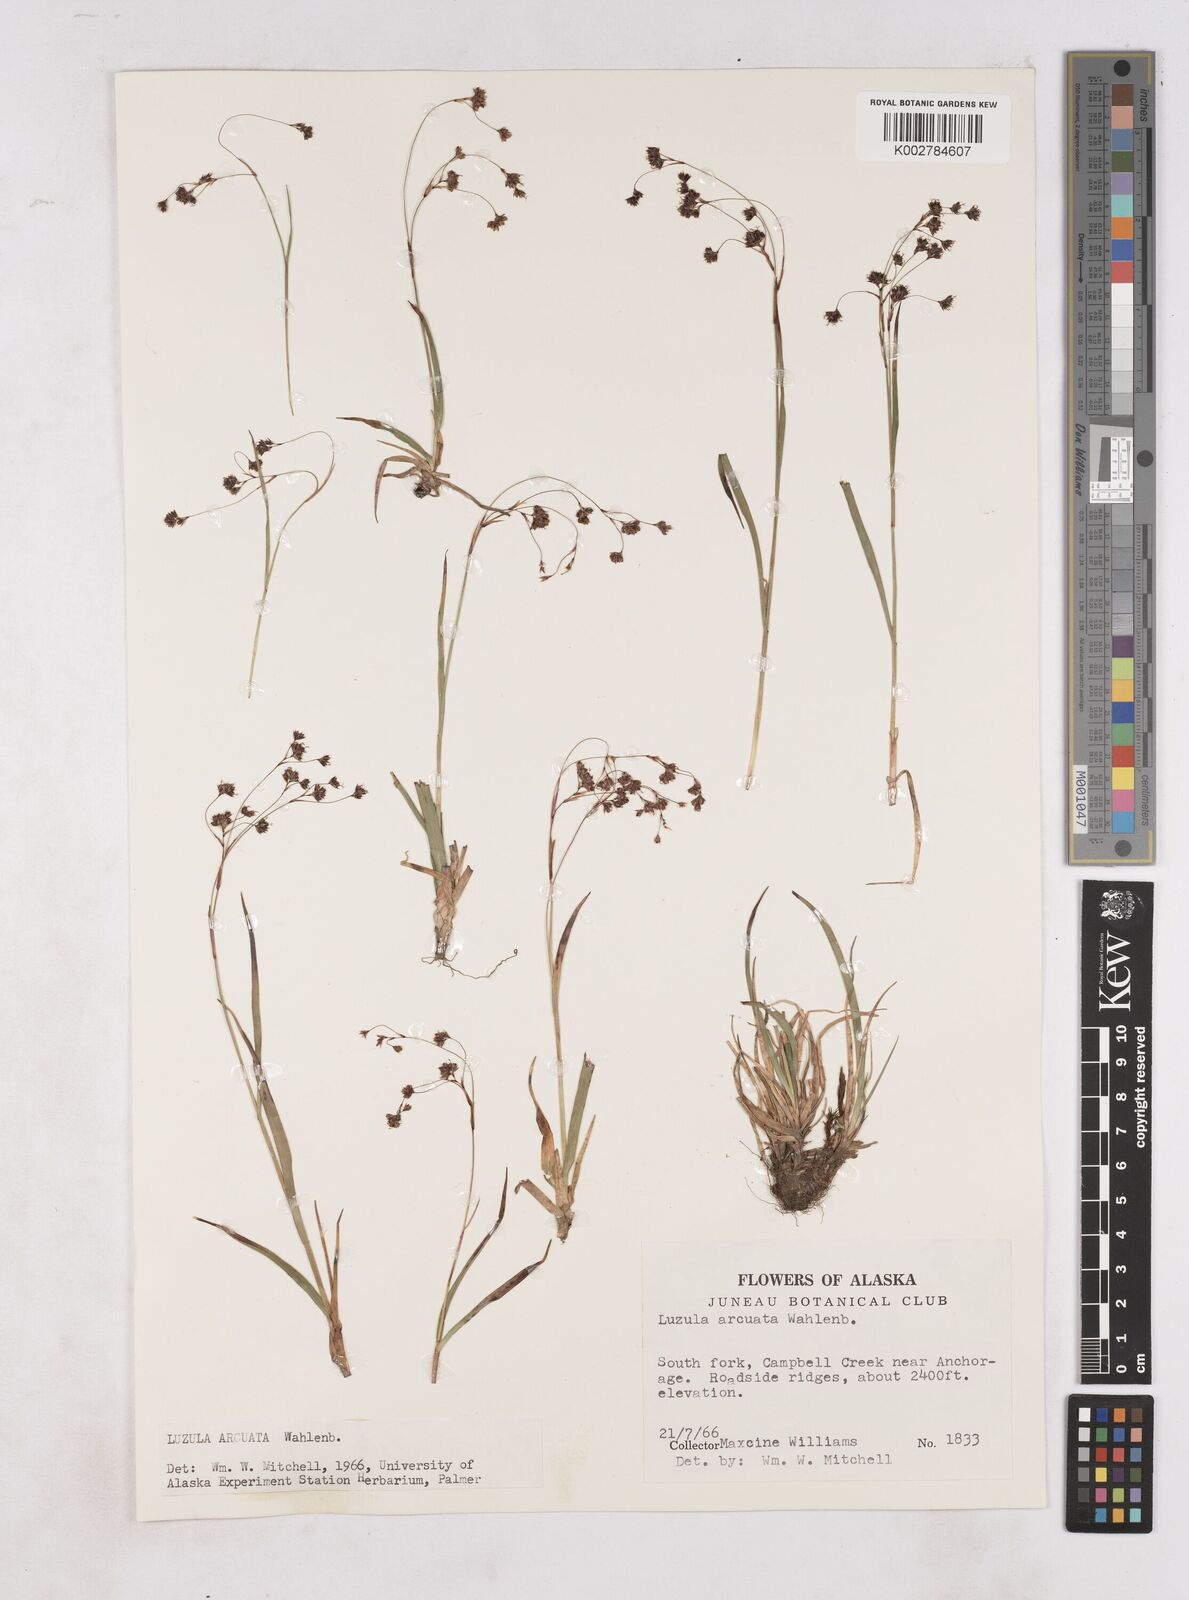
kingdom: Plantae
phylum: Tracheophyta
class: Liliopsida
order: Poales
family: Juncaceae
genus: Luzula
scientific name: Luzula arcuata
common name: Curved wood-rush
